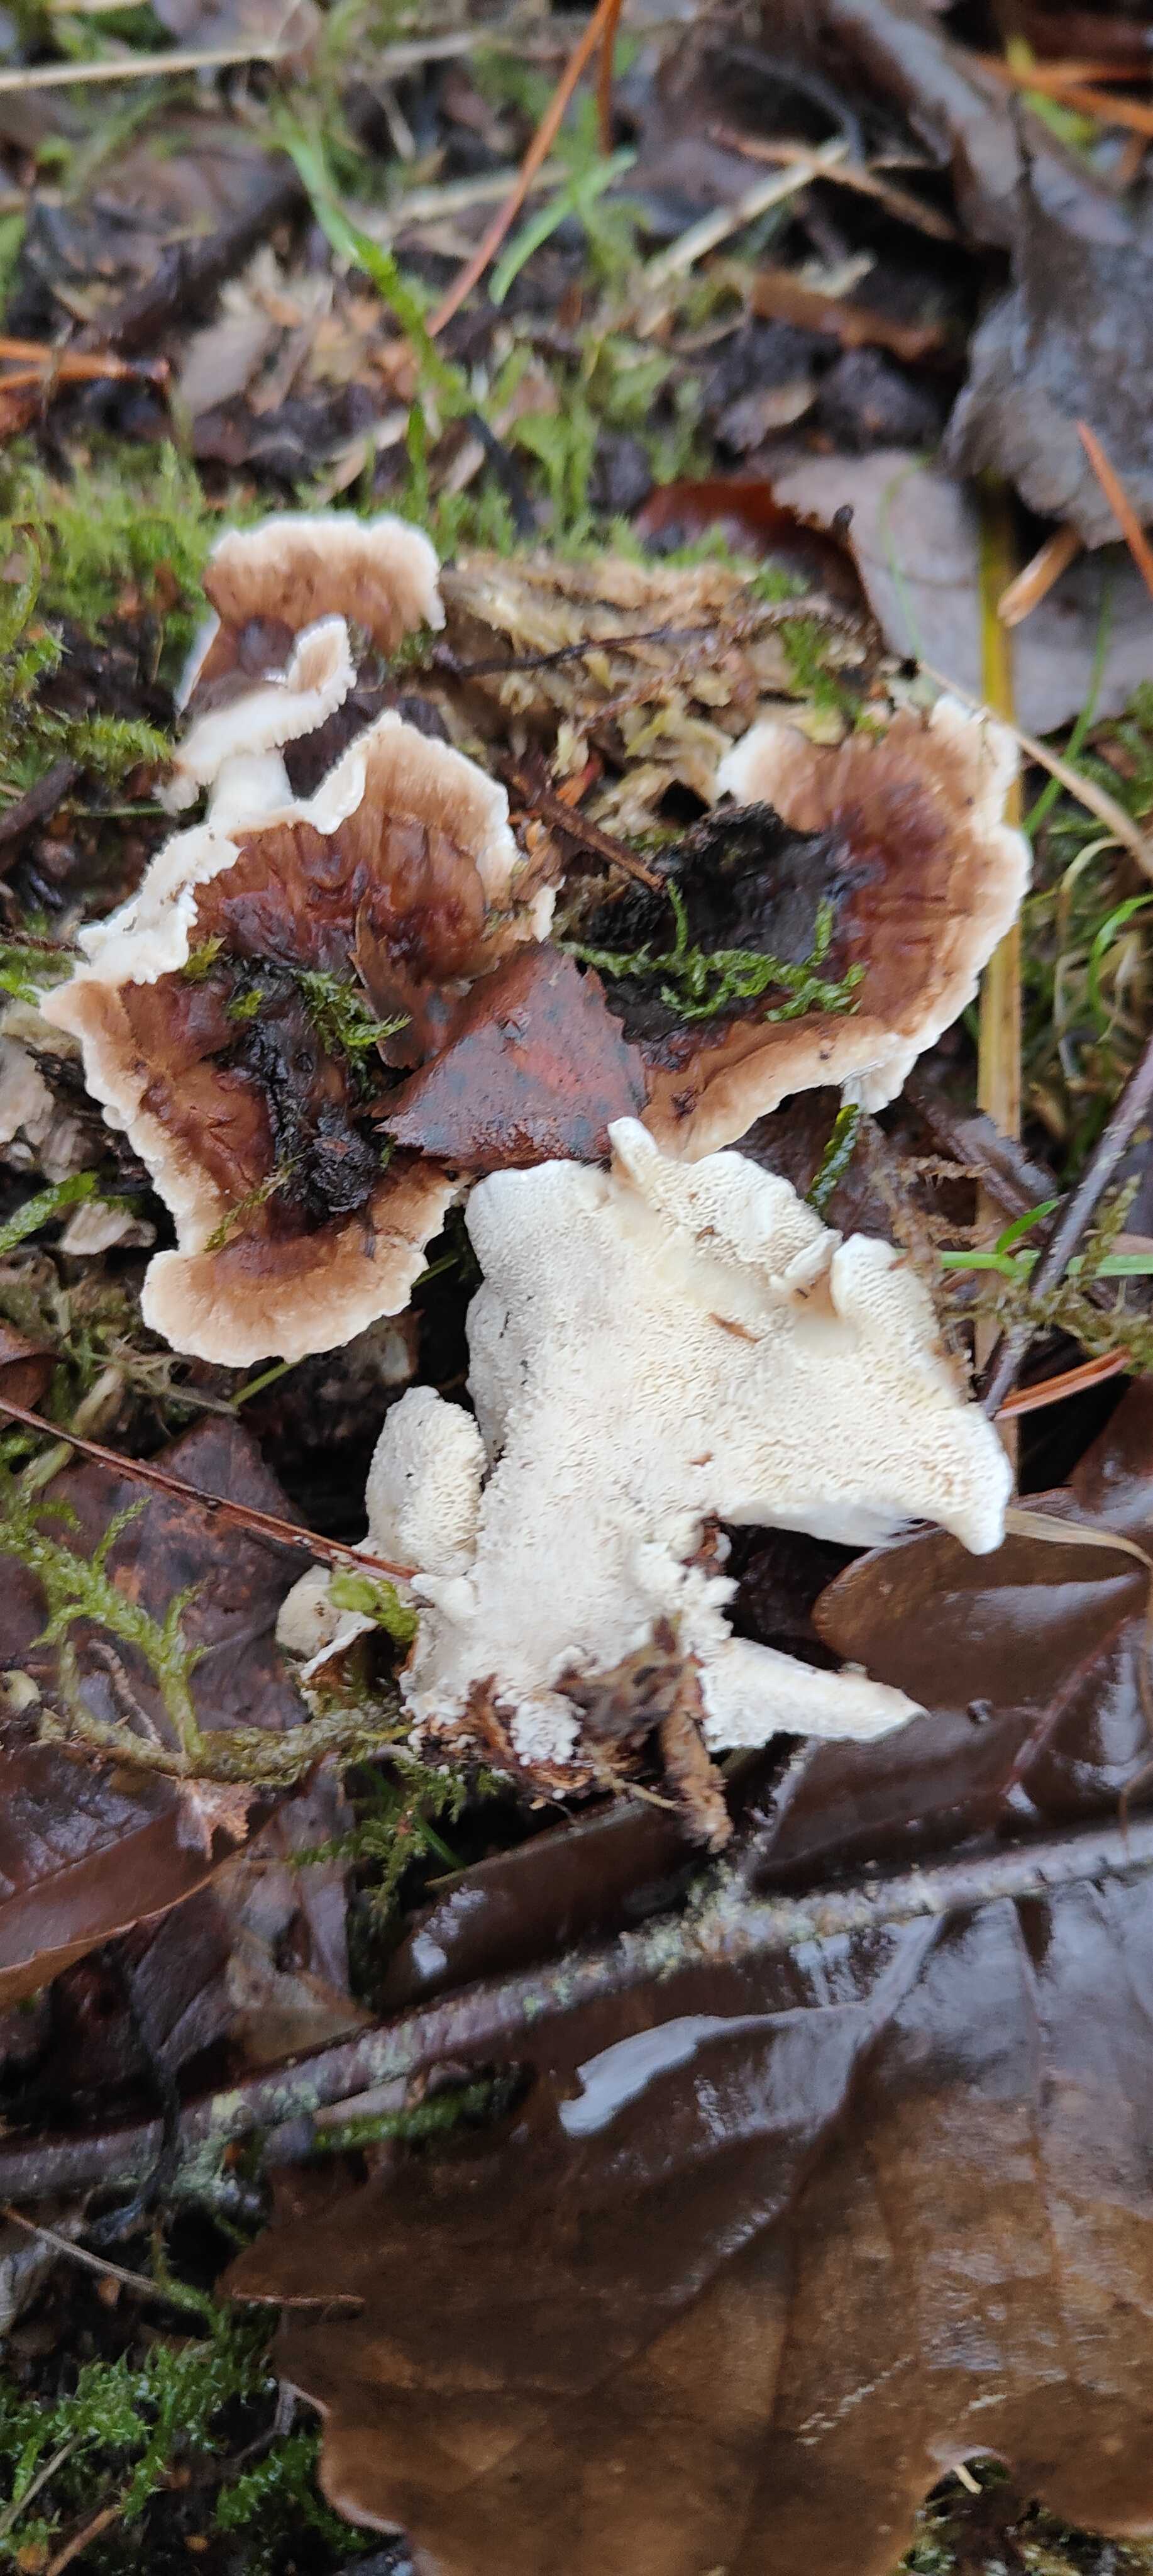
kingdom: Fungi
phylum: Basidiomycota
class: Agaricomycetes
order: Polyporales
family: Polyporaceae
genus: Trametes
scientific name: Trametes versicolor
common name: broget læderporesvamp
